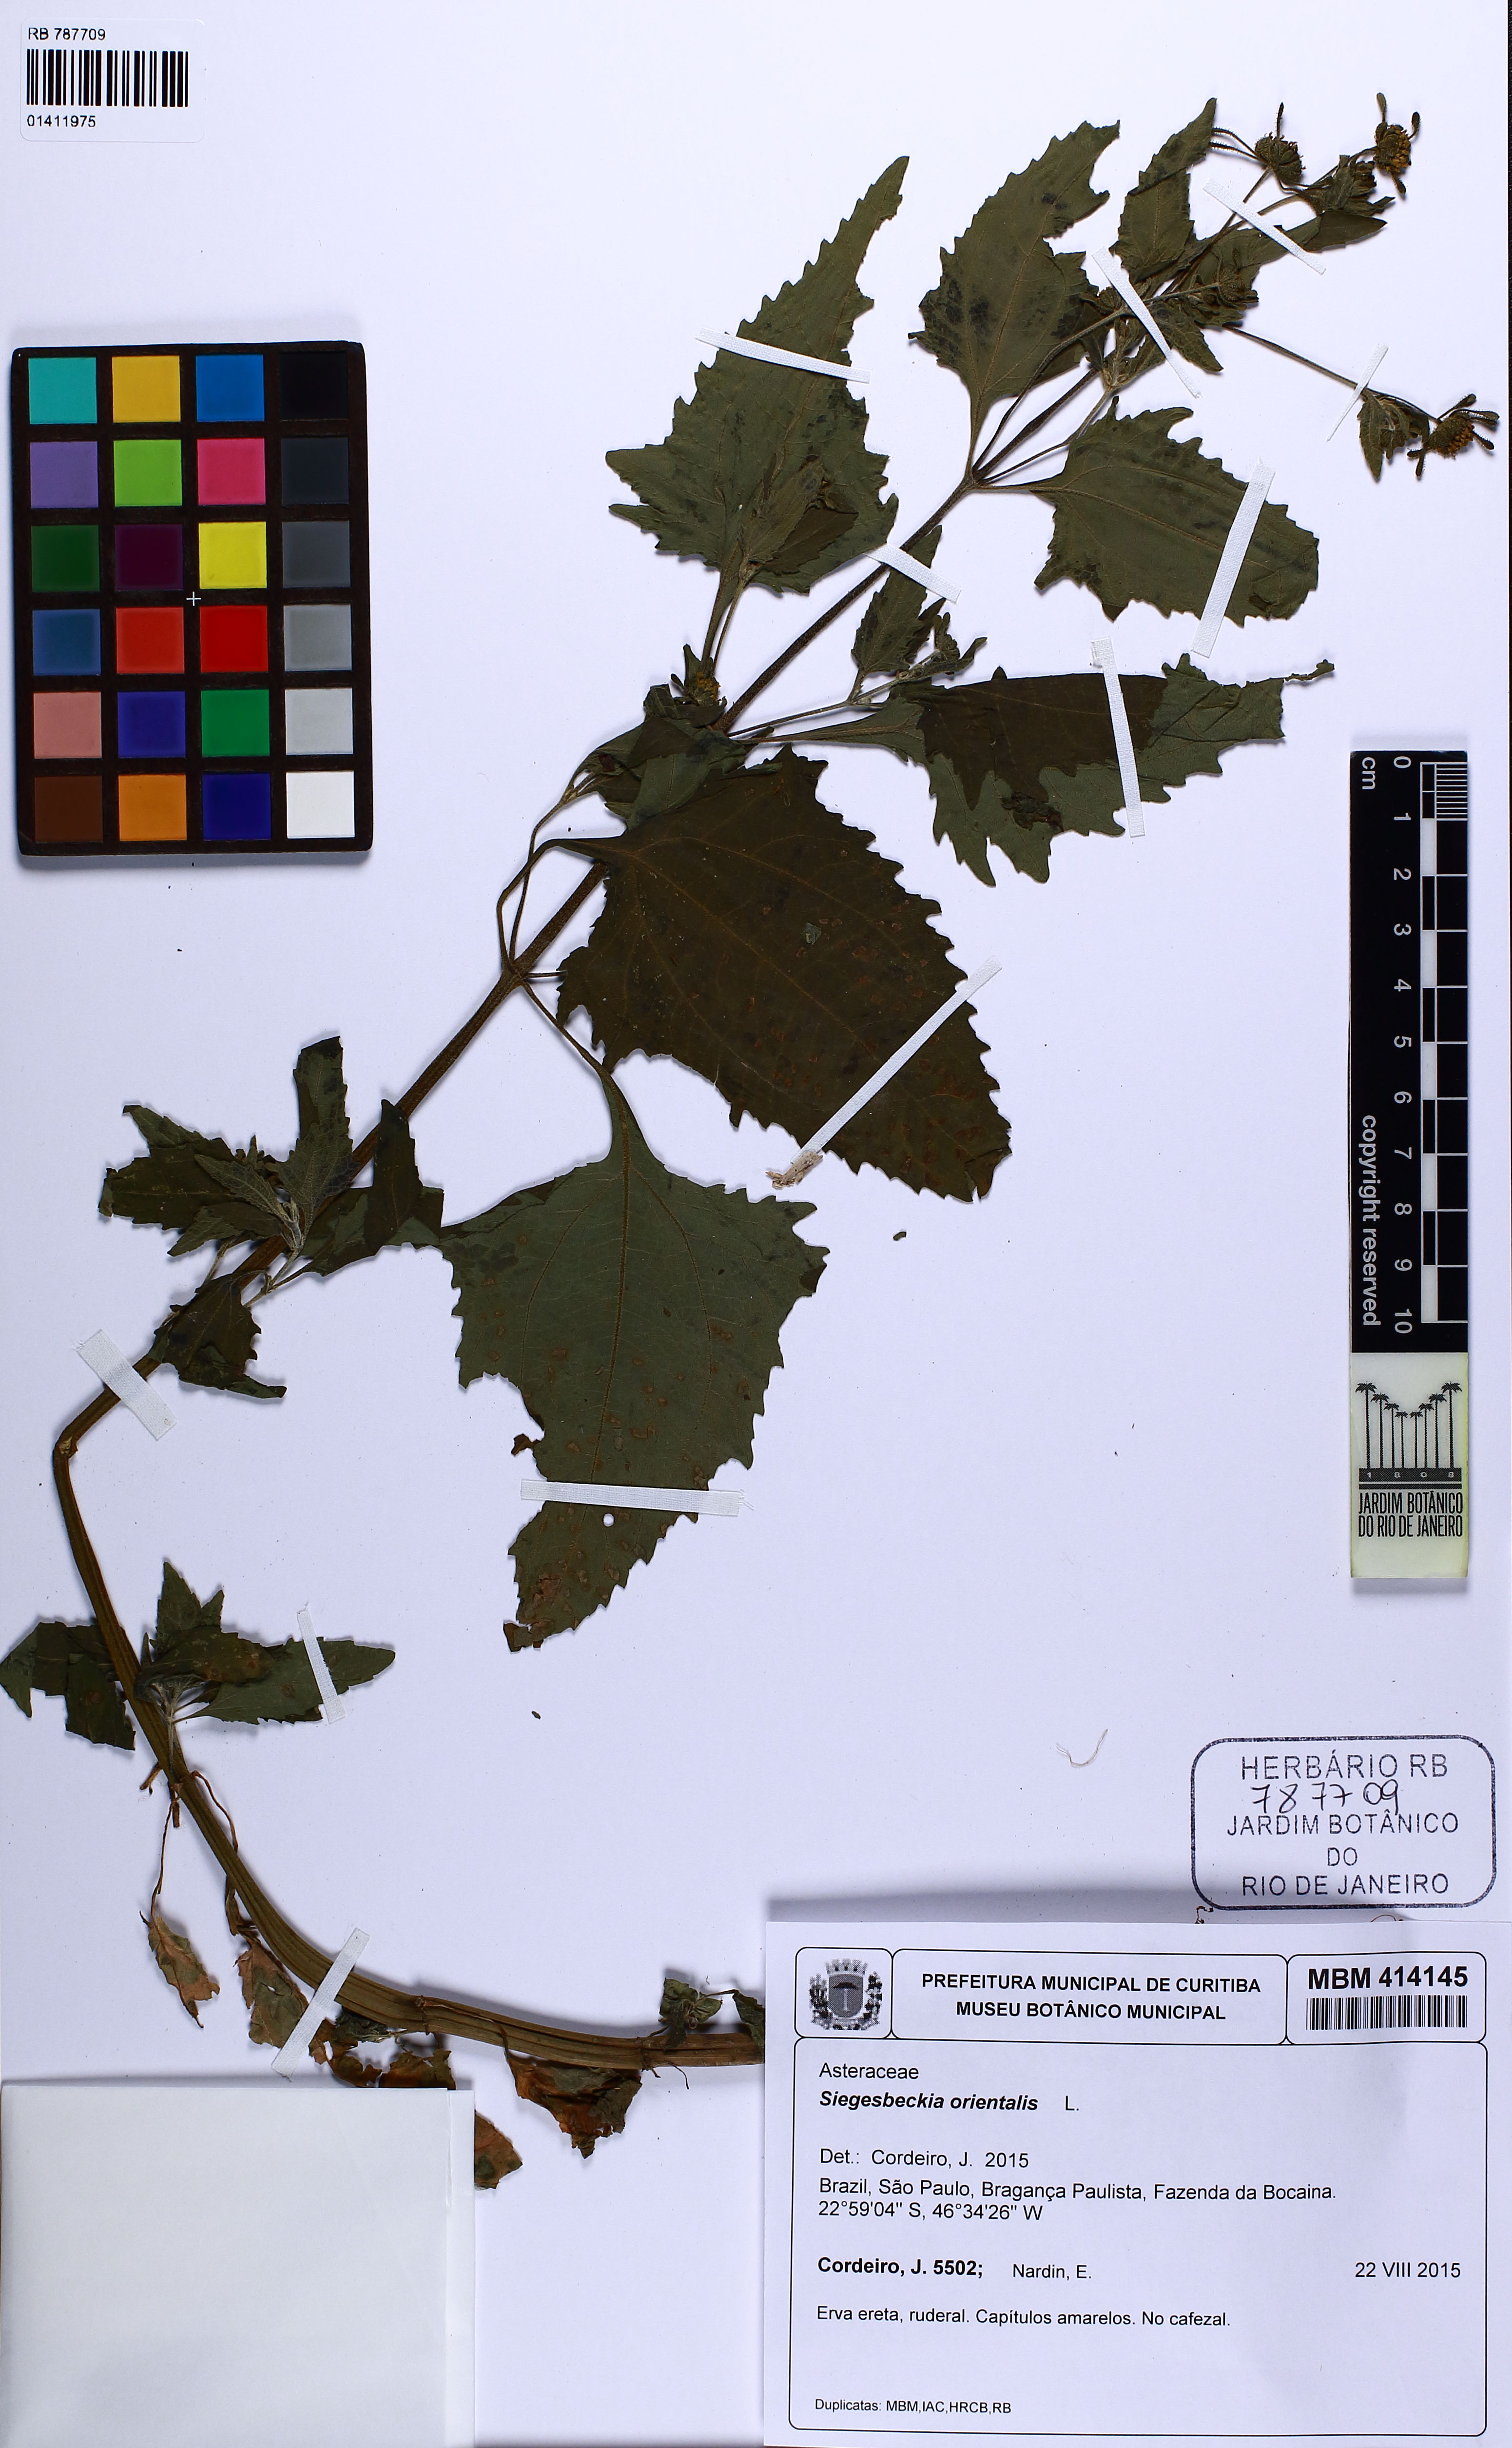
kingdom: Plantae
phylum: Tracheophyta
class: Magnoliopsida
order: Asterales
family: Asteraceae
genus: Sigesbeckia
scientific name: Sigesbeckia orientalis
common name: Eastern st paul's-wort
